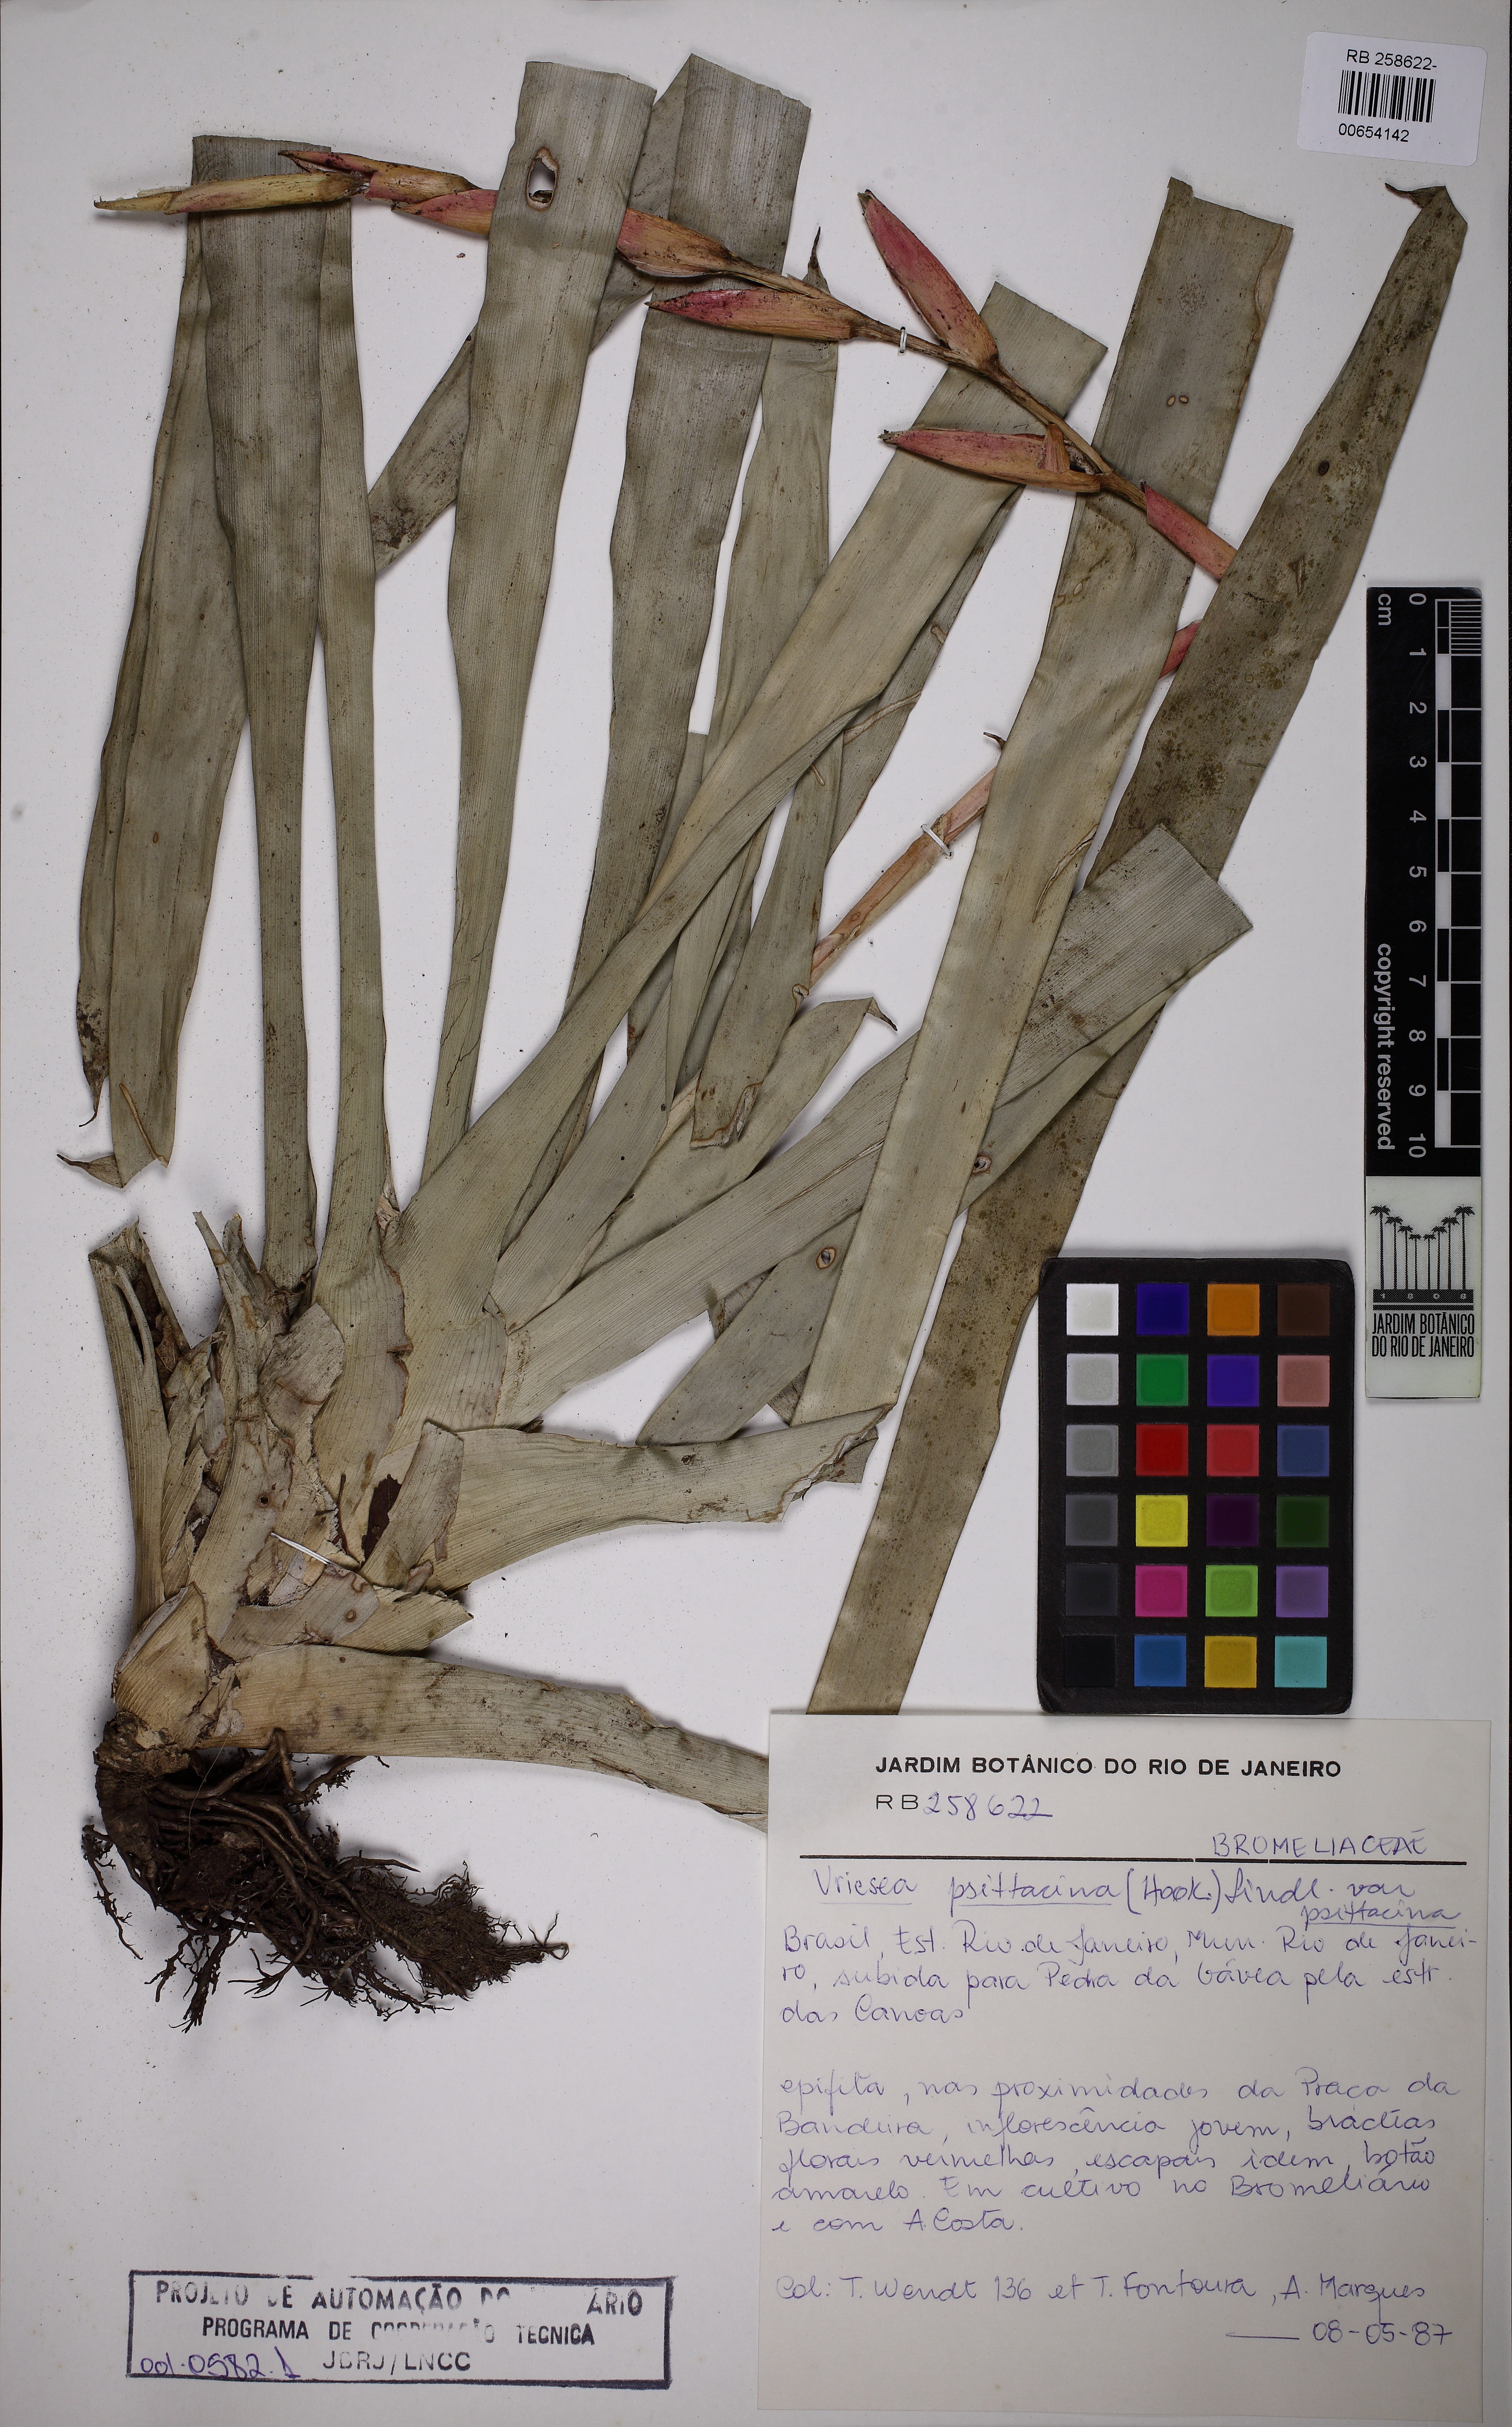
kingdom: Plantae
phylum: Tracheophyta
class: Liliopsida
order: Poales
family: Bromeliaceae
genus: Vriesea
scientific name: Vriesea psittacina
